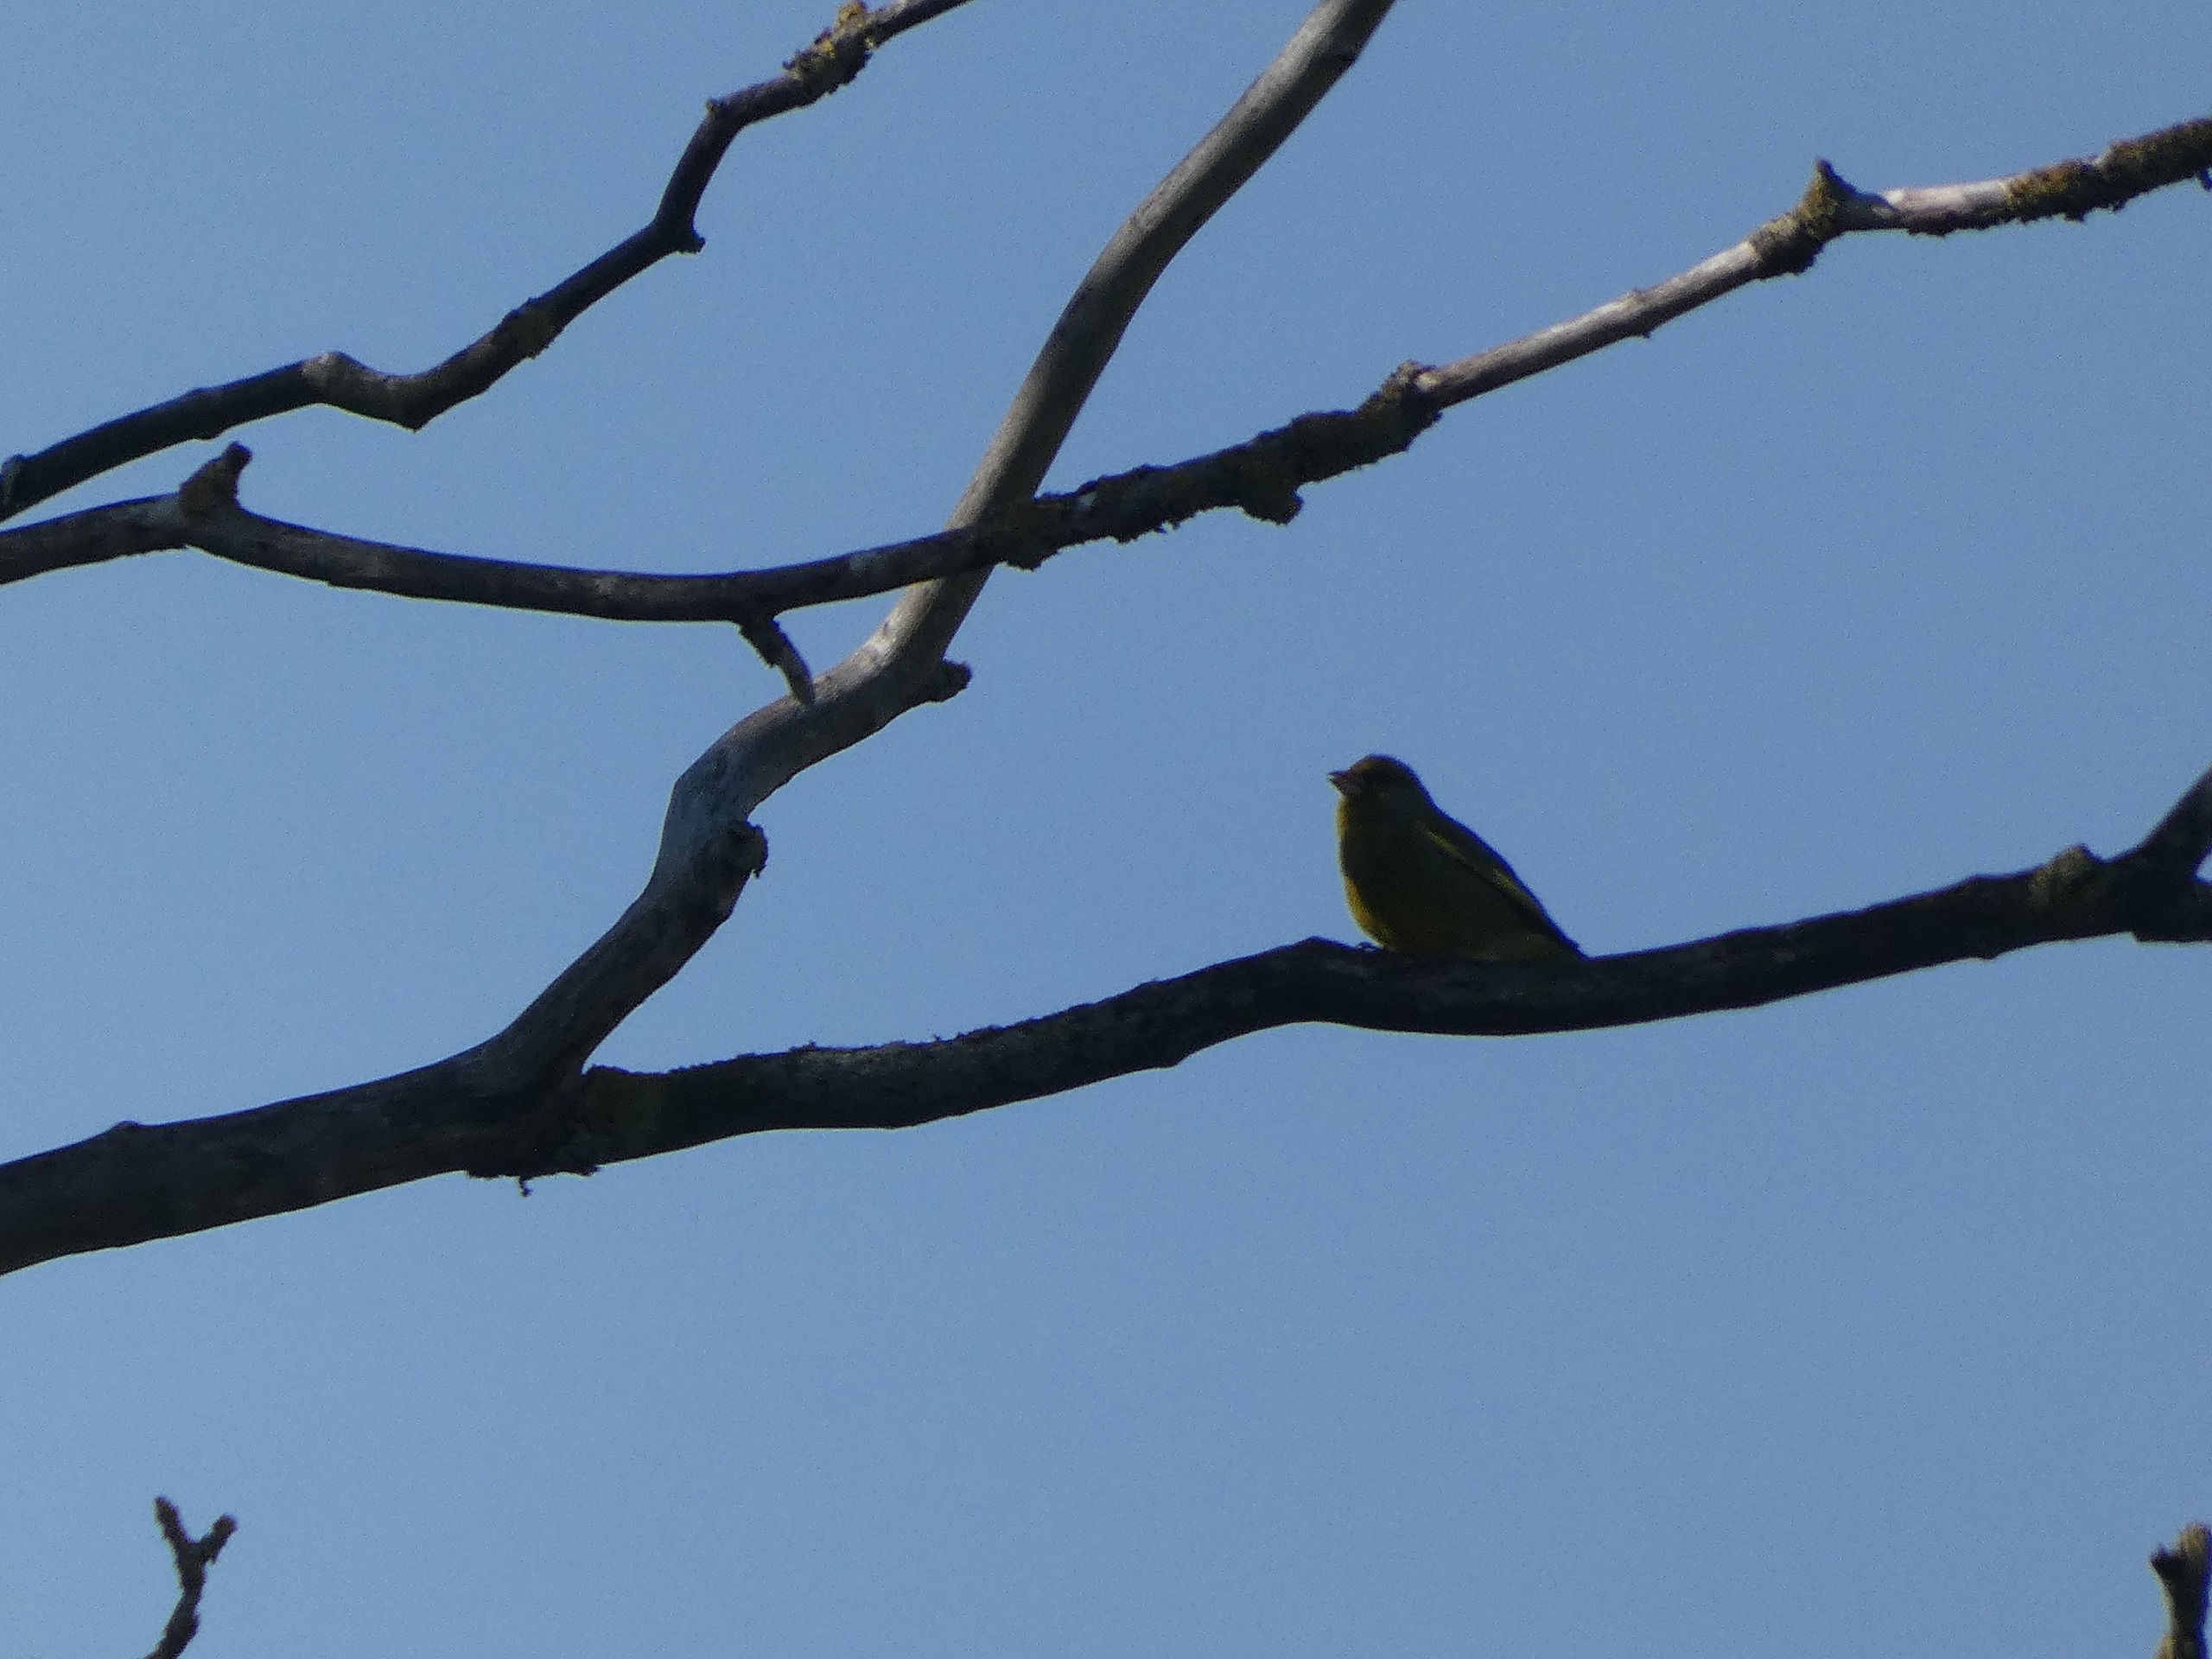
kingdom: Plantae
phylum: Tracheophyta
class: Liliopsida
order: Poales
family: Poaceae
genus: Chloris
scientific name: Chloris chloris
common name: Grønirisk
